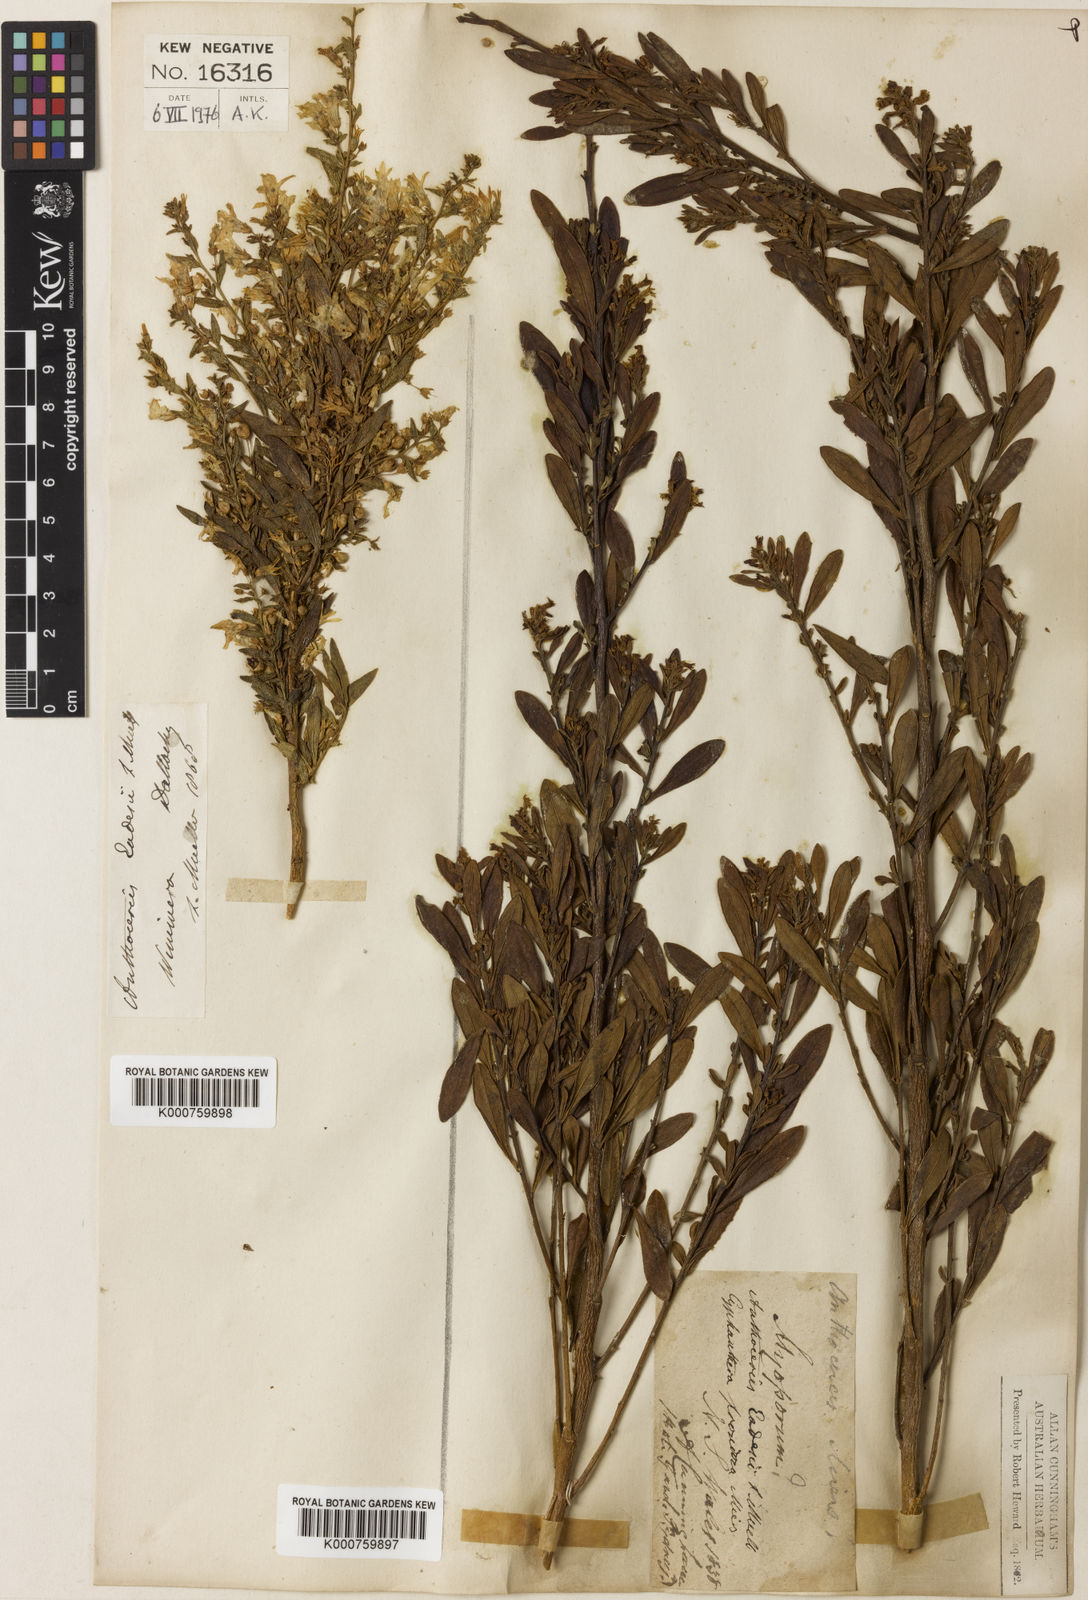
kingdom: Plantae
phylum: Tracheophyta
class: Magnoliopsida
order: Solanales
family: Solanaceae
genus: Cyphanthera
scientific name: Cyphanthera anthocercidea
